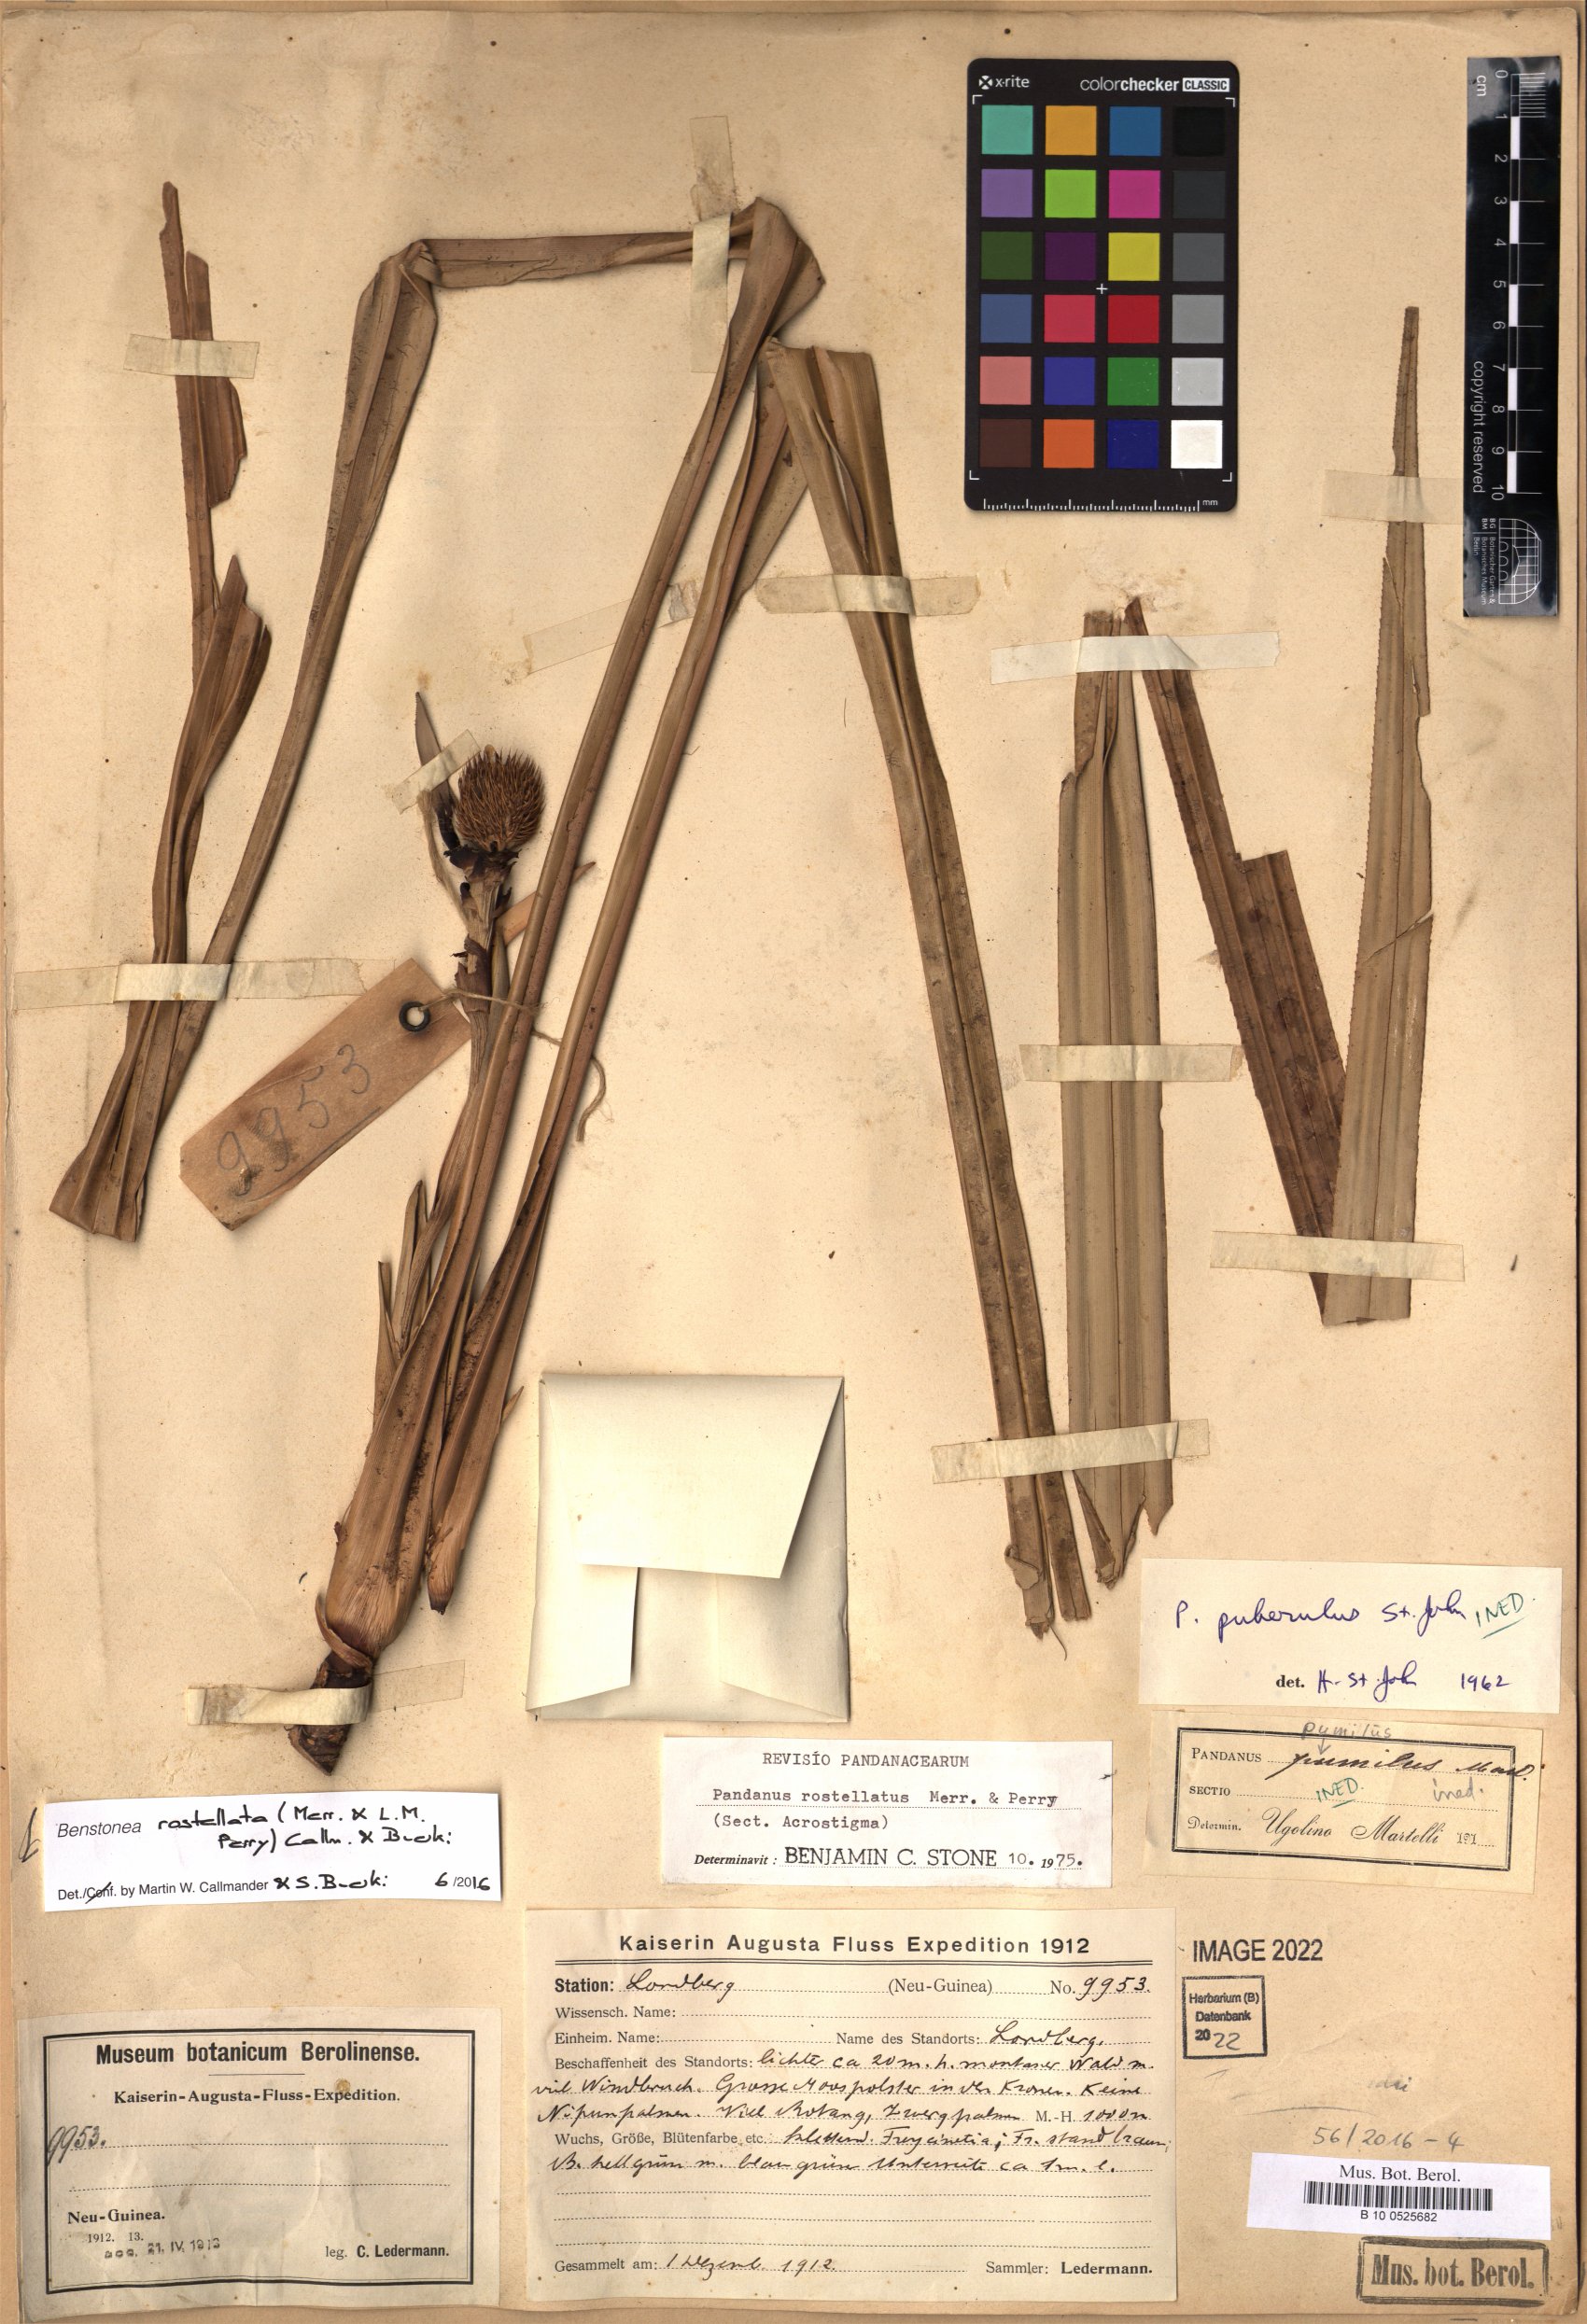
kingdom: Plantae
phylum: Tracheophyta
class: Liliopsida
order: Pandanales
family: Pandanaceae
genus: Benstonea
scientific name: Benstonea rostellata
